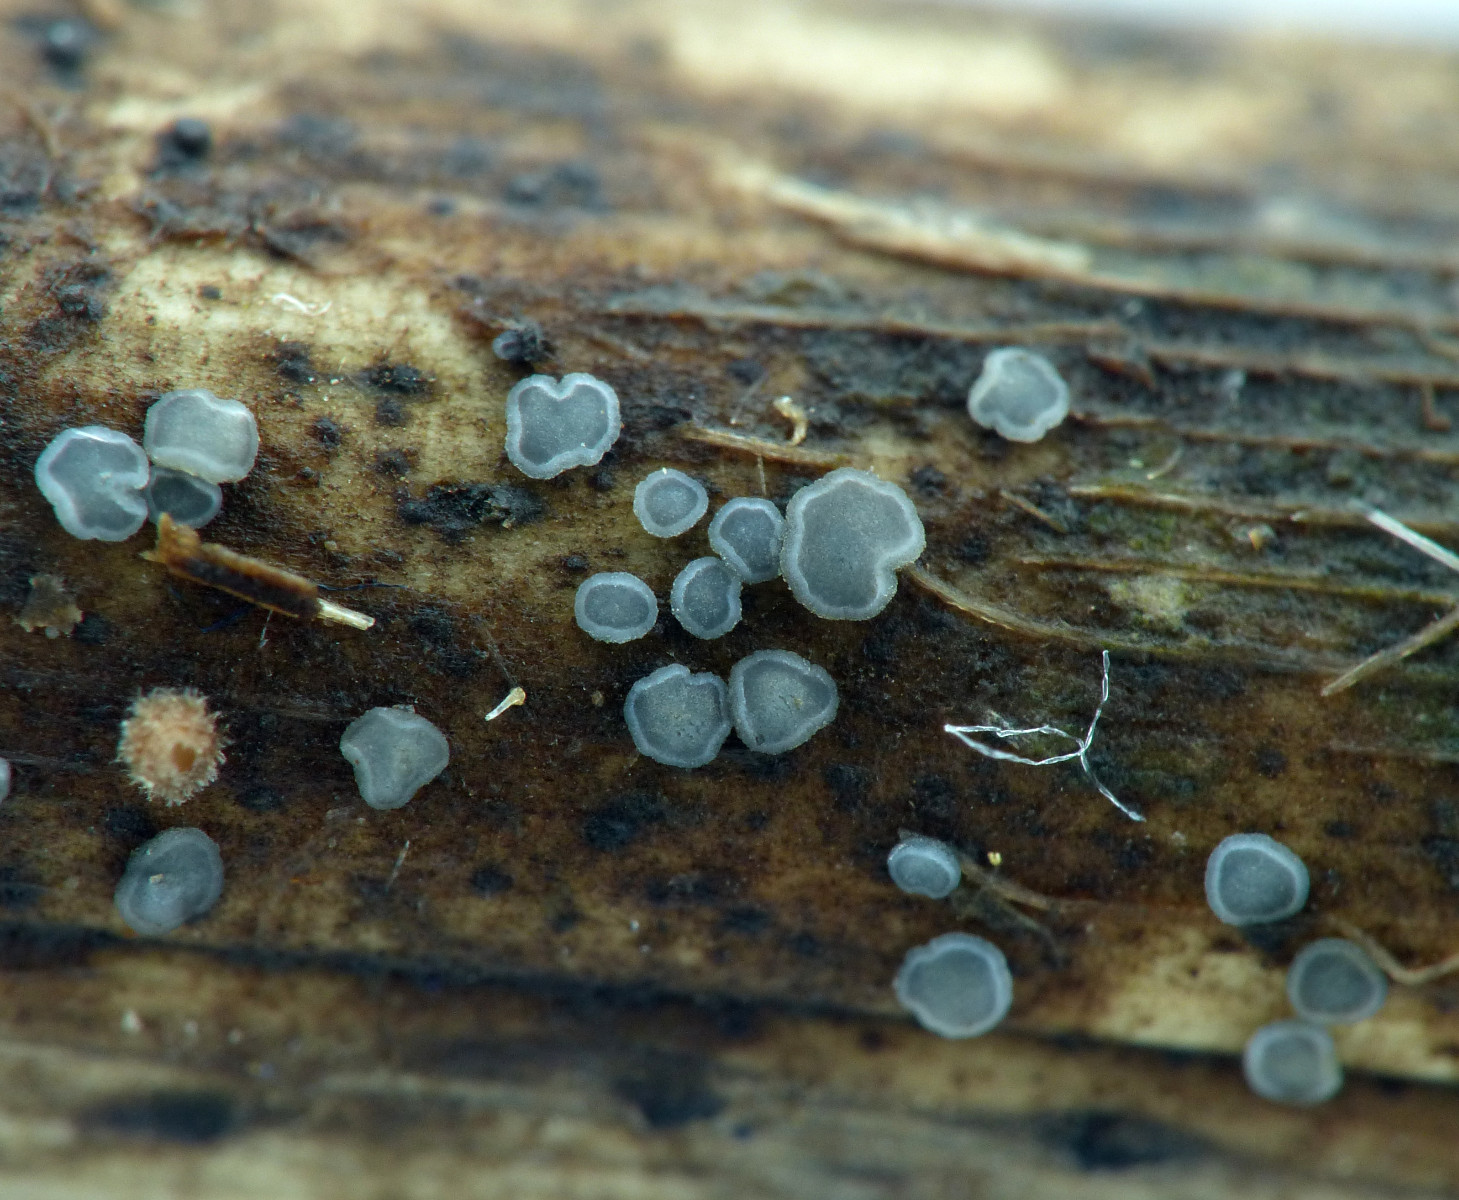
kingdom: Fungi
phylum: Ascomycota
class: Leotiomycetes
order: Helotiales
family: Dermateaceae
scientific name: Dermateaceae
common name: gråskivefamilien
